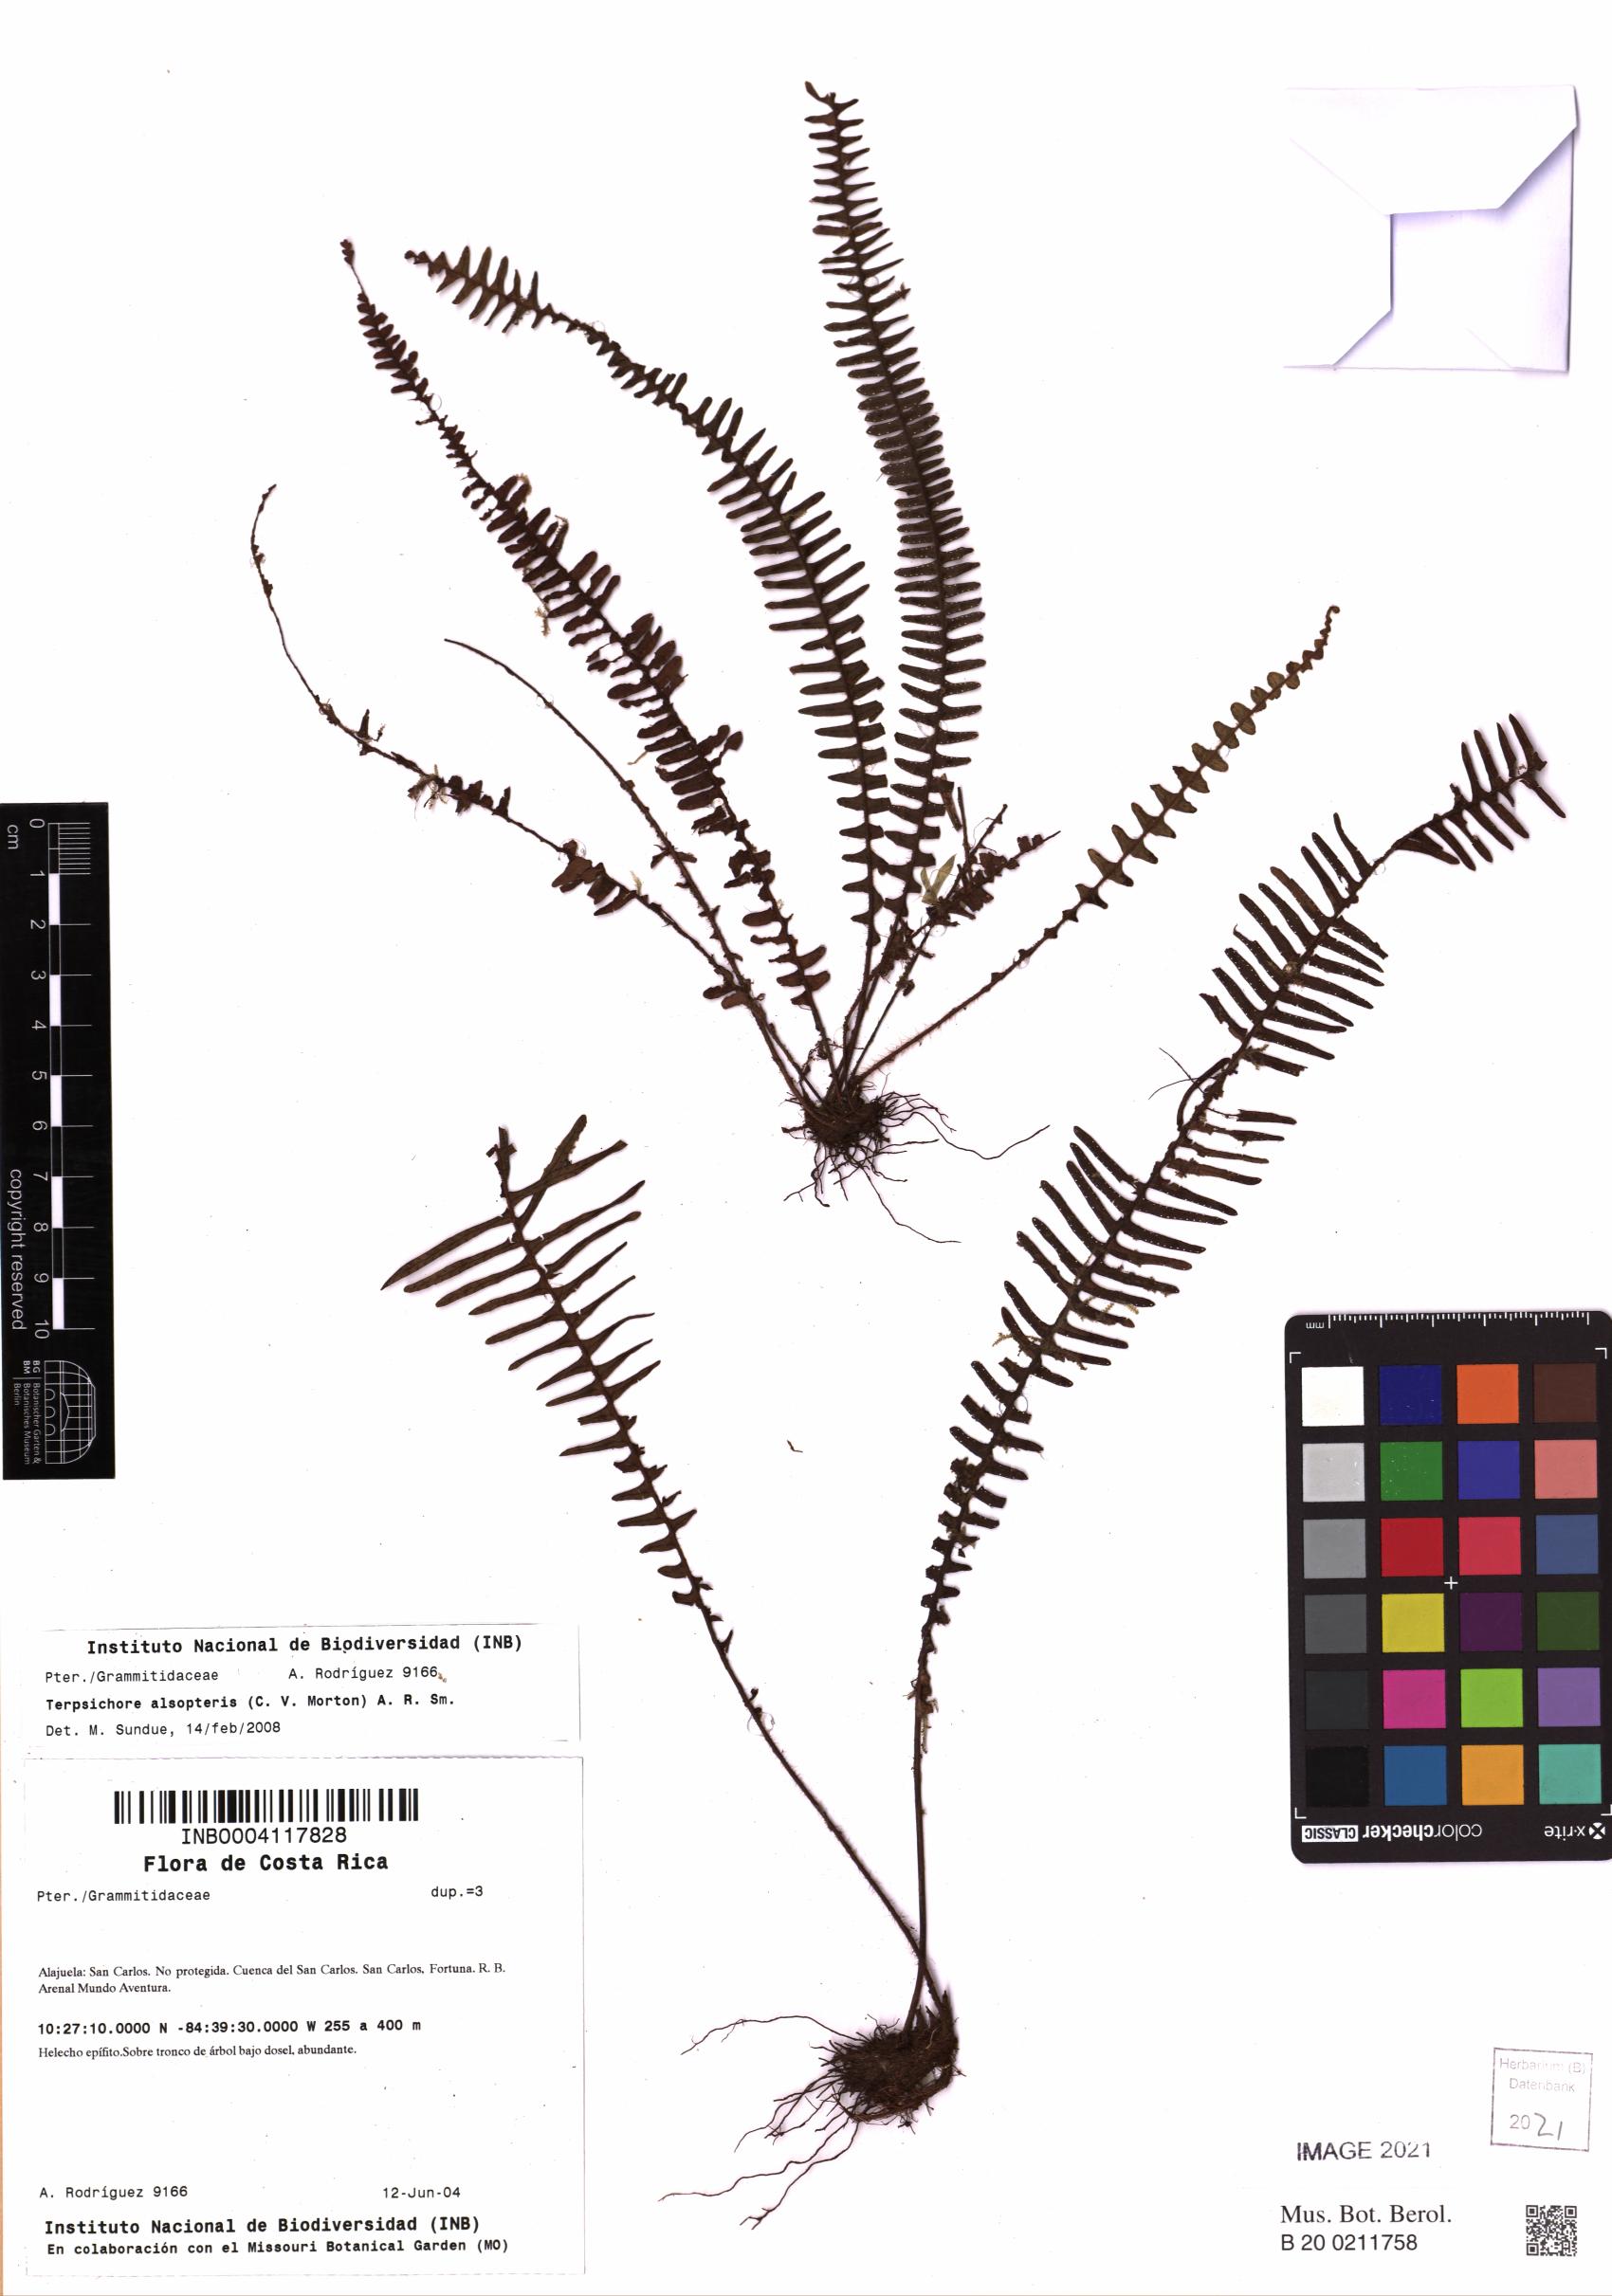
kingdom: Plantae
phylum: Tracheophyta
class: Polypodiopsida
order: Polypodiales
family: Polypodiaceae
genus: Mycopteris
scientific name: Mycopteris alsopteris
